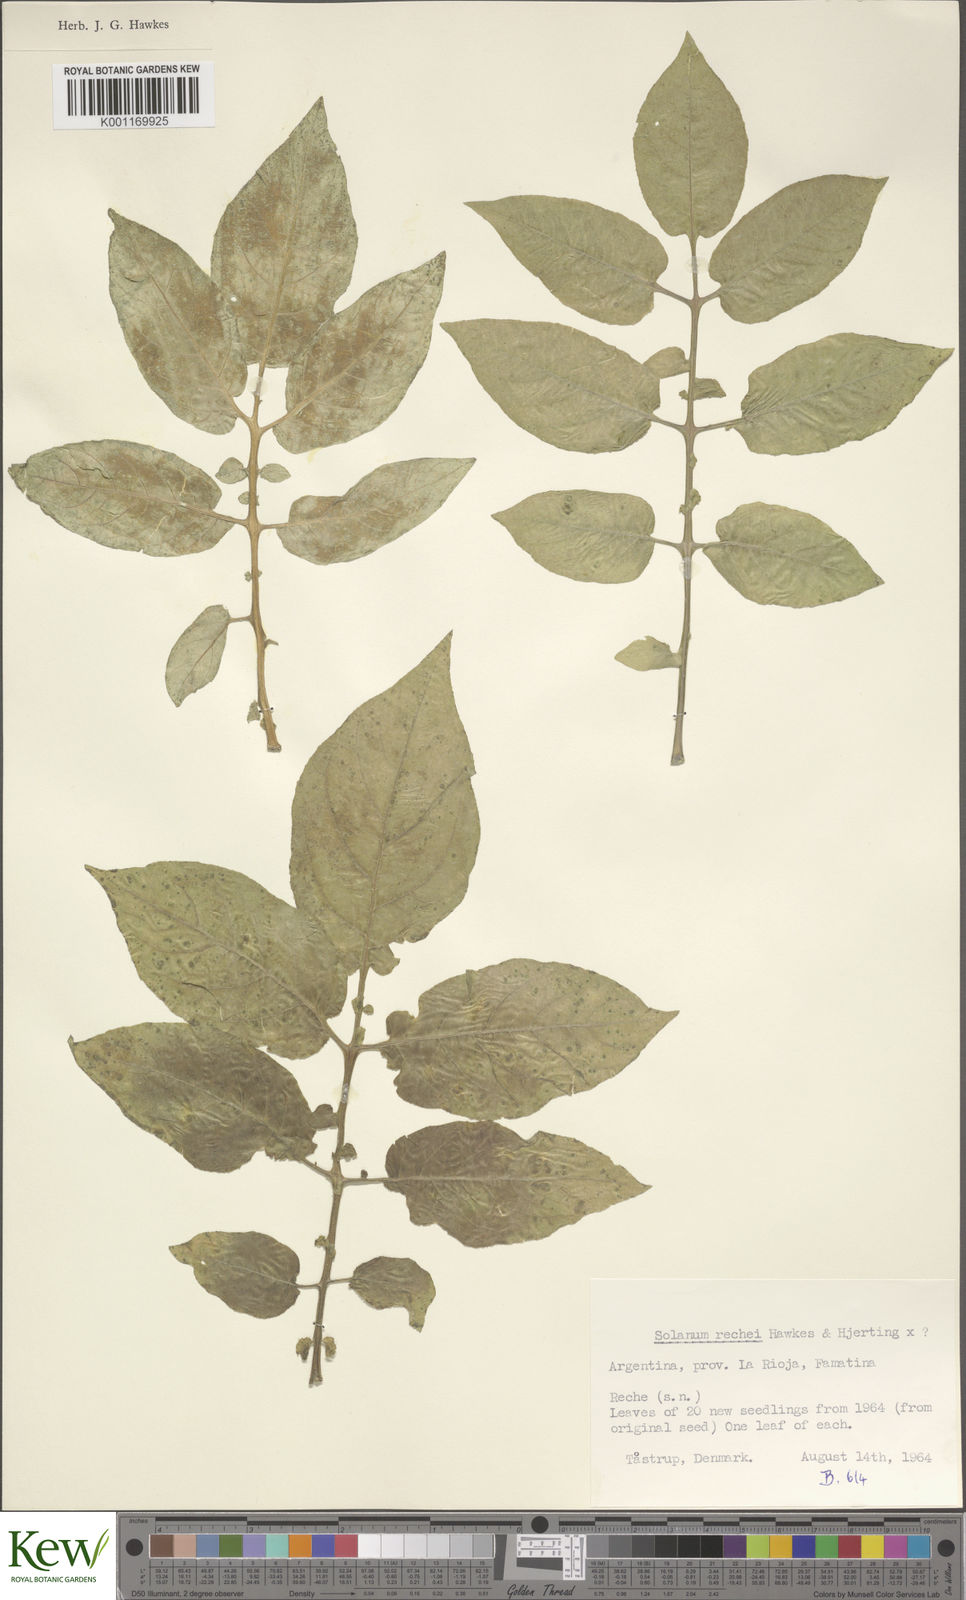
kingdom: Plantae
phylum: Tracheophyta
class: Magnoliopsida
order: Solanales
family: Solanaceae
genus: Solanum
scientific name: Solanum rechei
